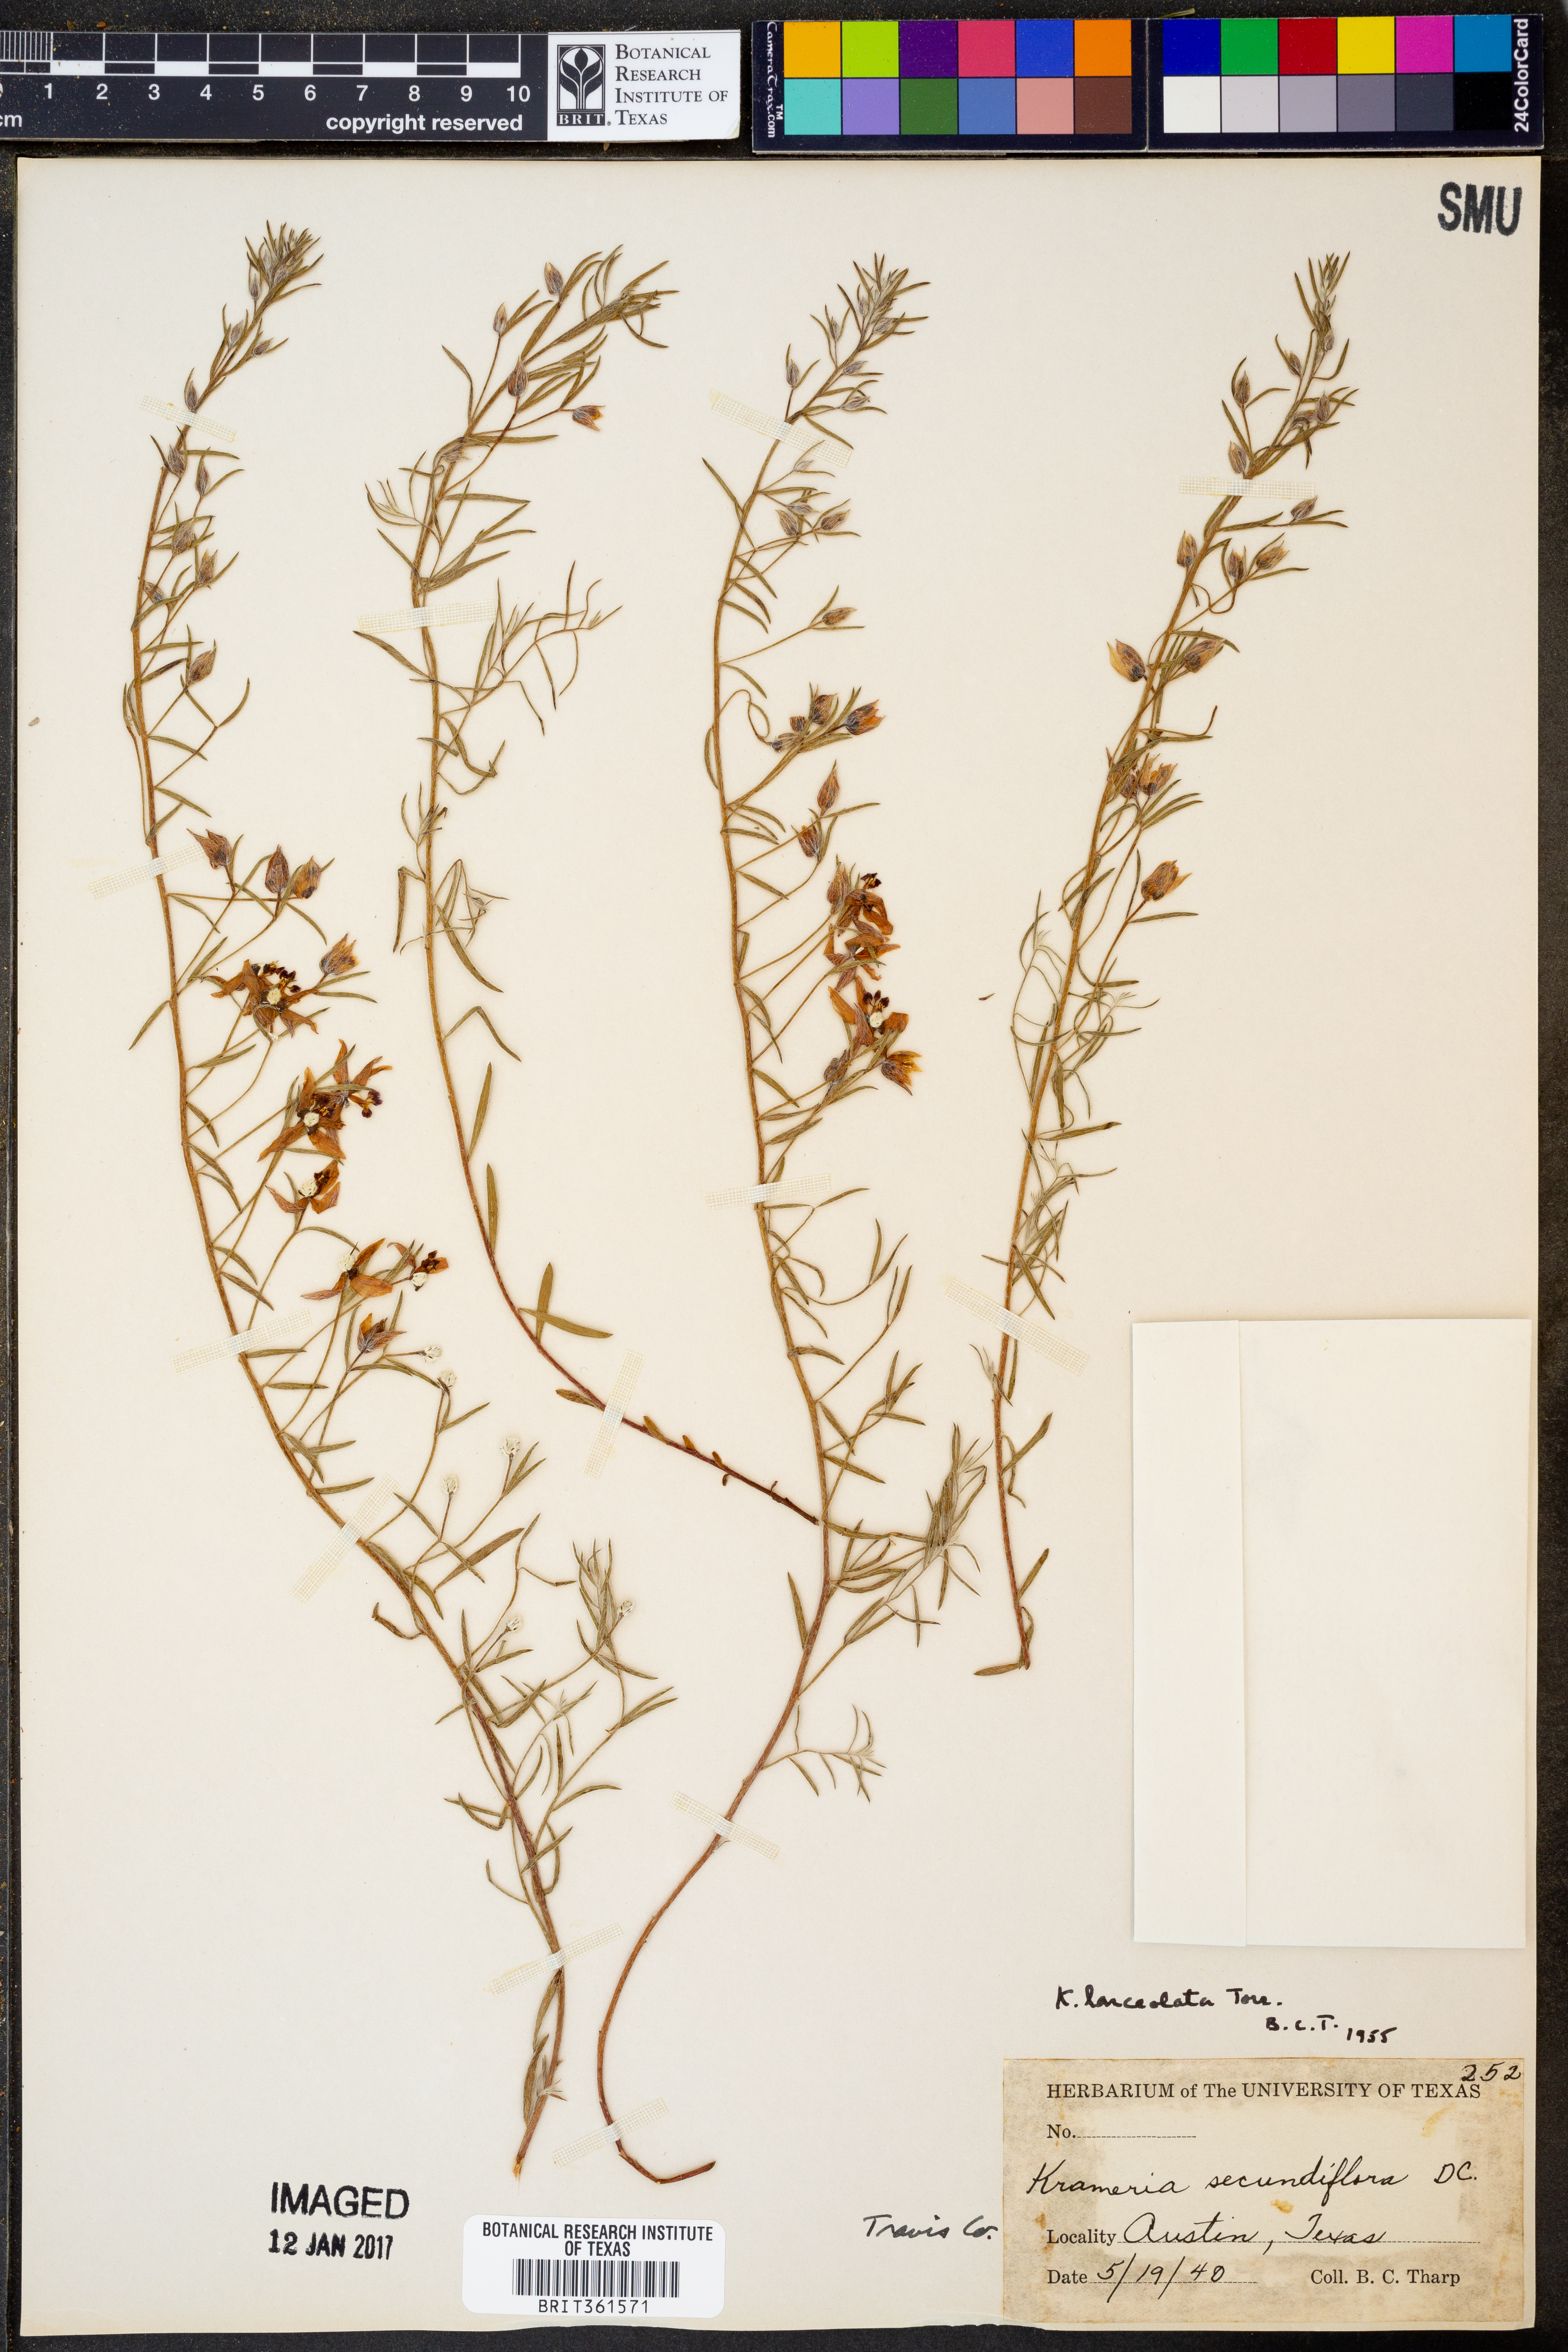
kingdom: Plantae
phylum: Tracheophyta
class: Magnoliopsida
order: Zygophyllales
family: Krameriaceae
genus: Krameria
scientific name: Krameria lanceolata
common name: Ratany
